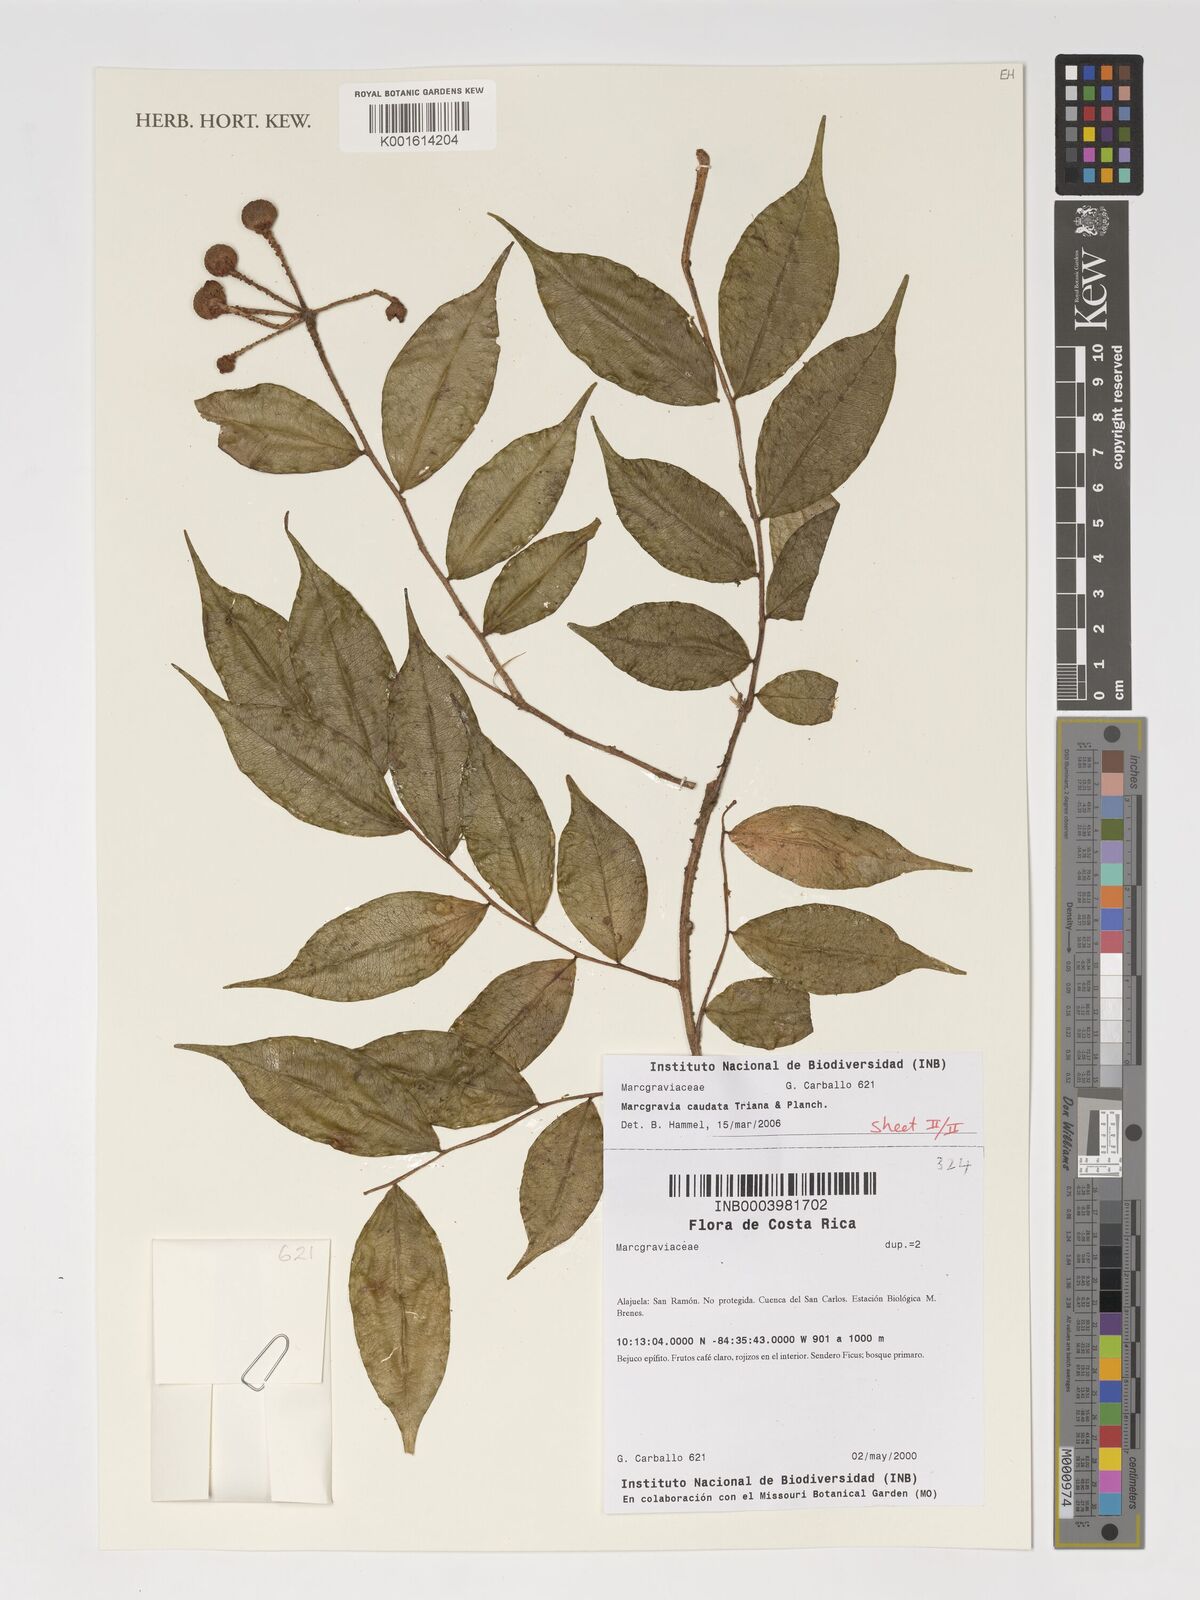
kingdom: Plantae
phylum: Tracheophyta
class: Magnoliopsida
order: Ericales
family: Marcgraviaceae
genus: Marcgravia
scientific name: Marcgravia caudata
